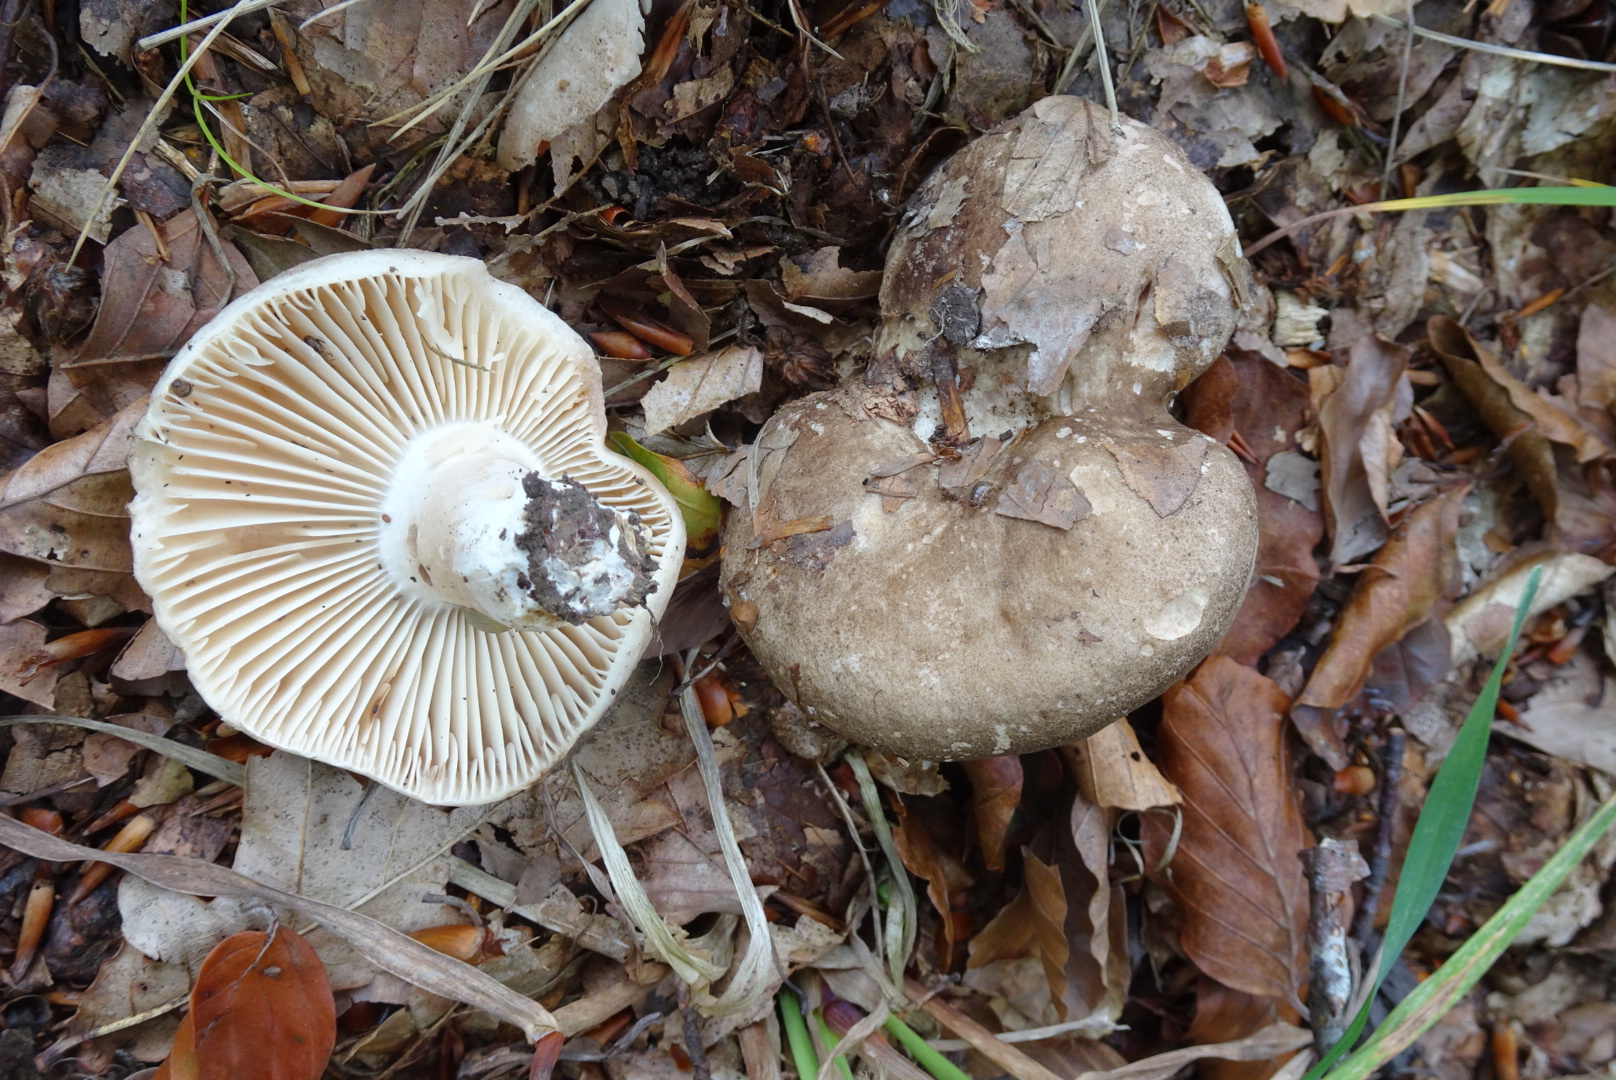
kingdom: Fungi
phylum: Basidiomycota
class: Agaricomycetes
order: Russulales
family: Russulaceae
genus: Russula
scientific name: Russula adusta
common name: sværtende skørhat
